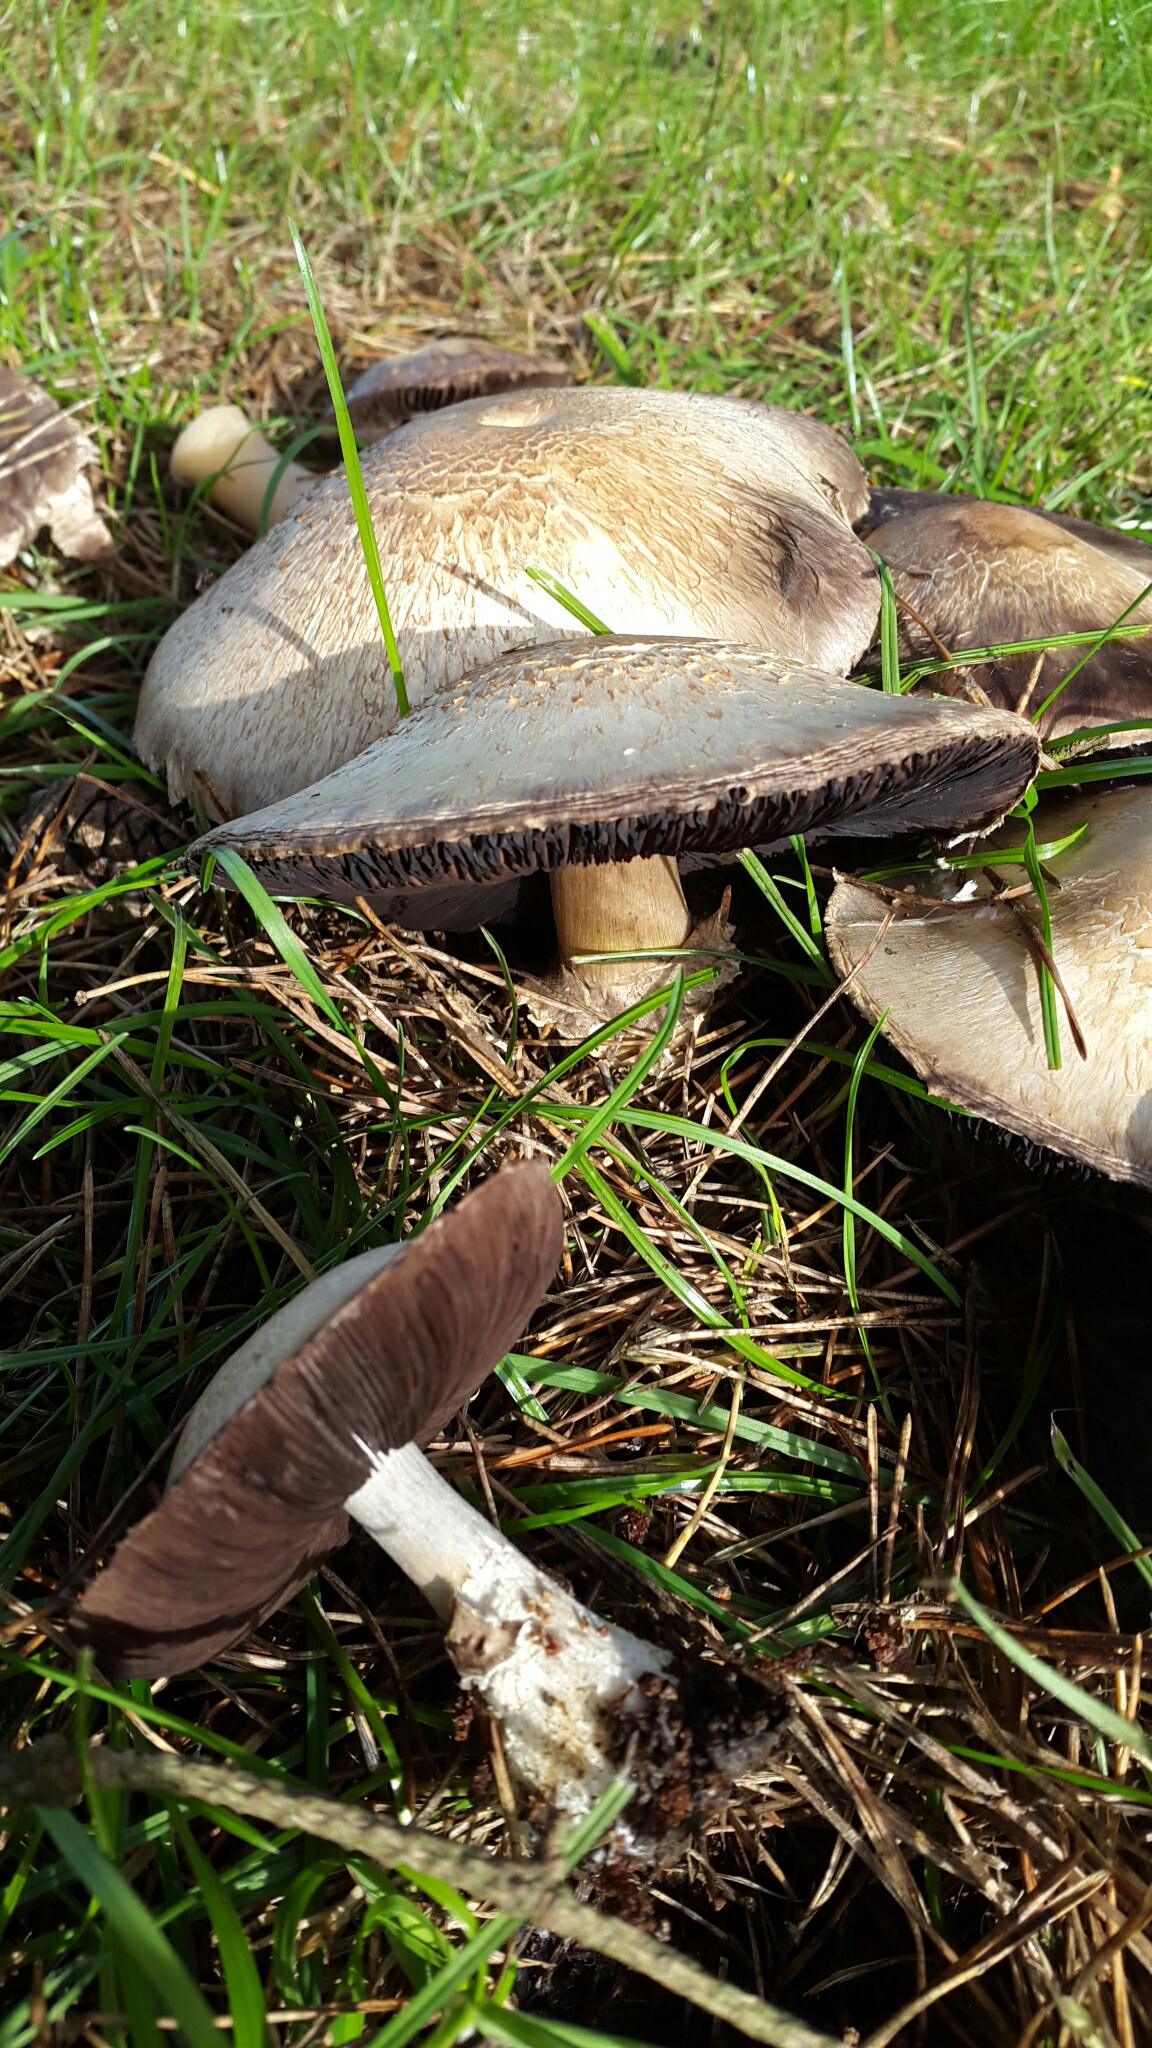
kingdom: Fungi
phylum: Basidiomycota
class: Agaricomycetes
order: Agaricales
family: Agaricaceae
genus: Agaricus
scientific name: Agaricus
